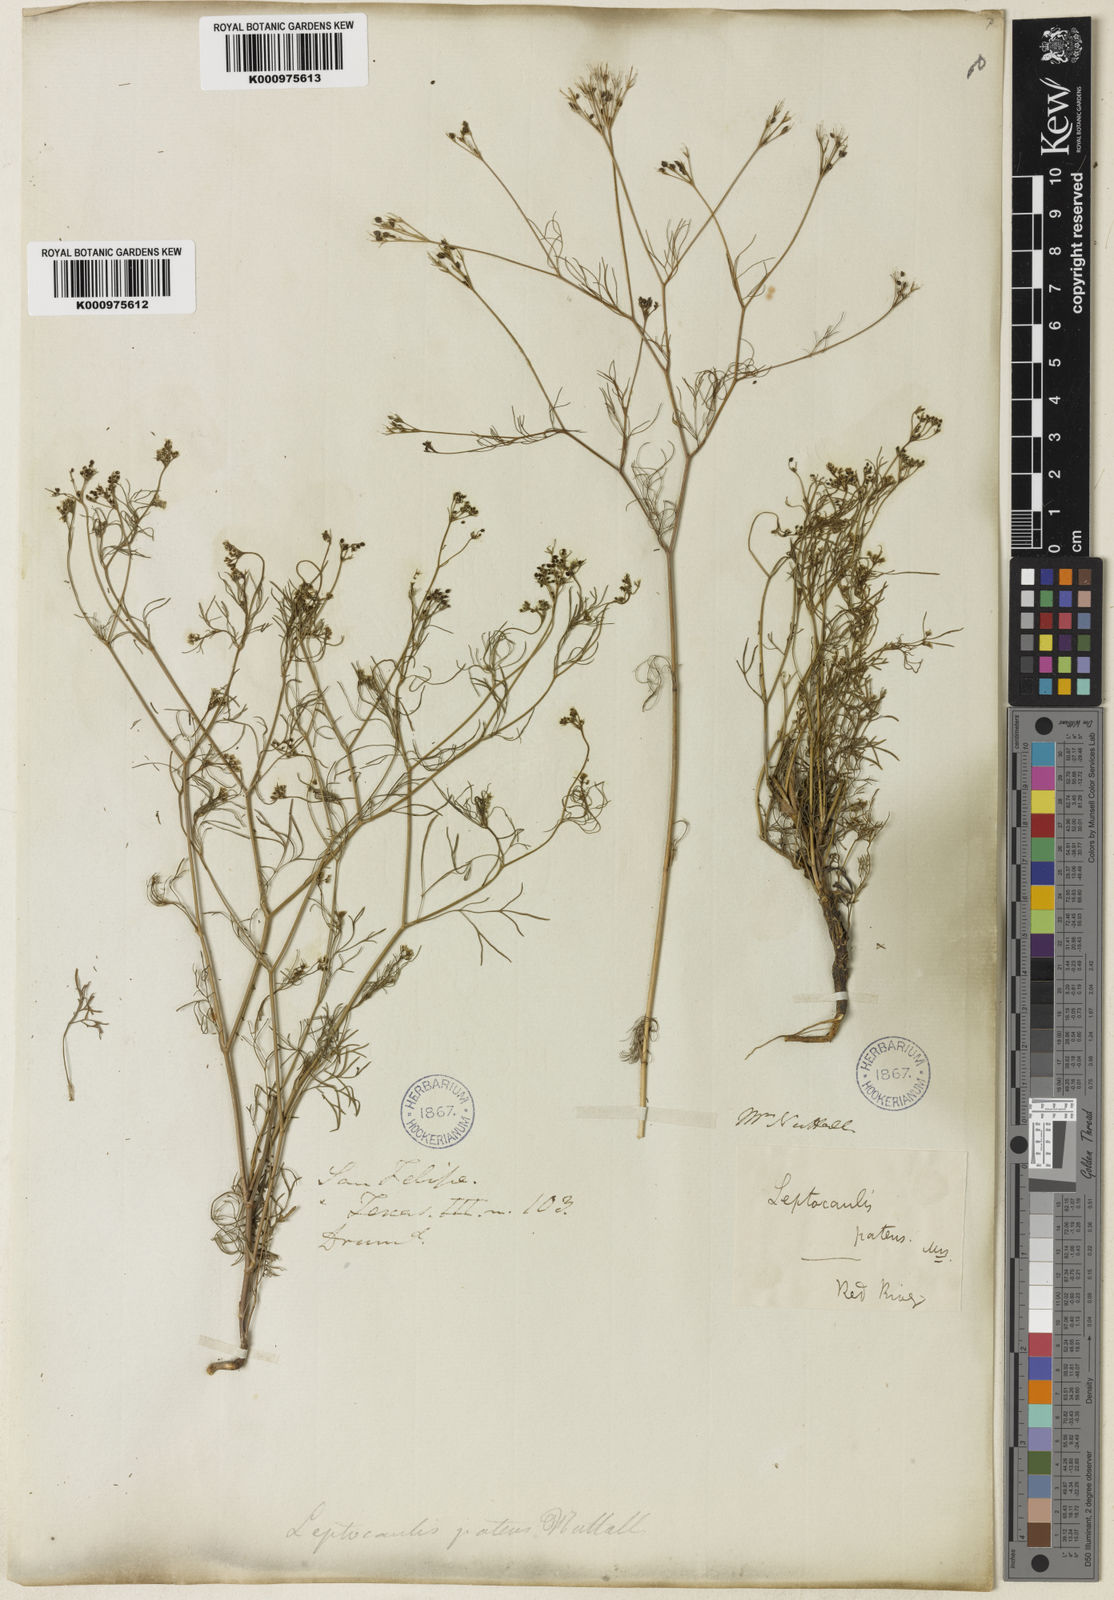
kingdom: Plantae
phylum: Tracheophyta
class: Magnoliopsida
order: Apiales
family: Apiaceae
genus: Spermolepis
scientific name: Spermolepis inermis
